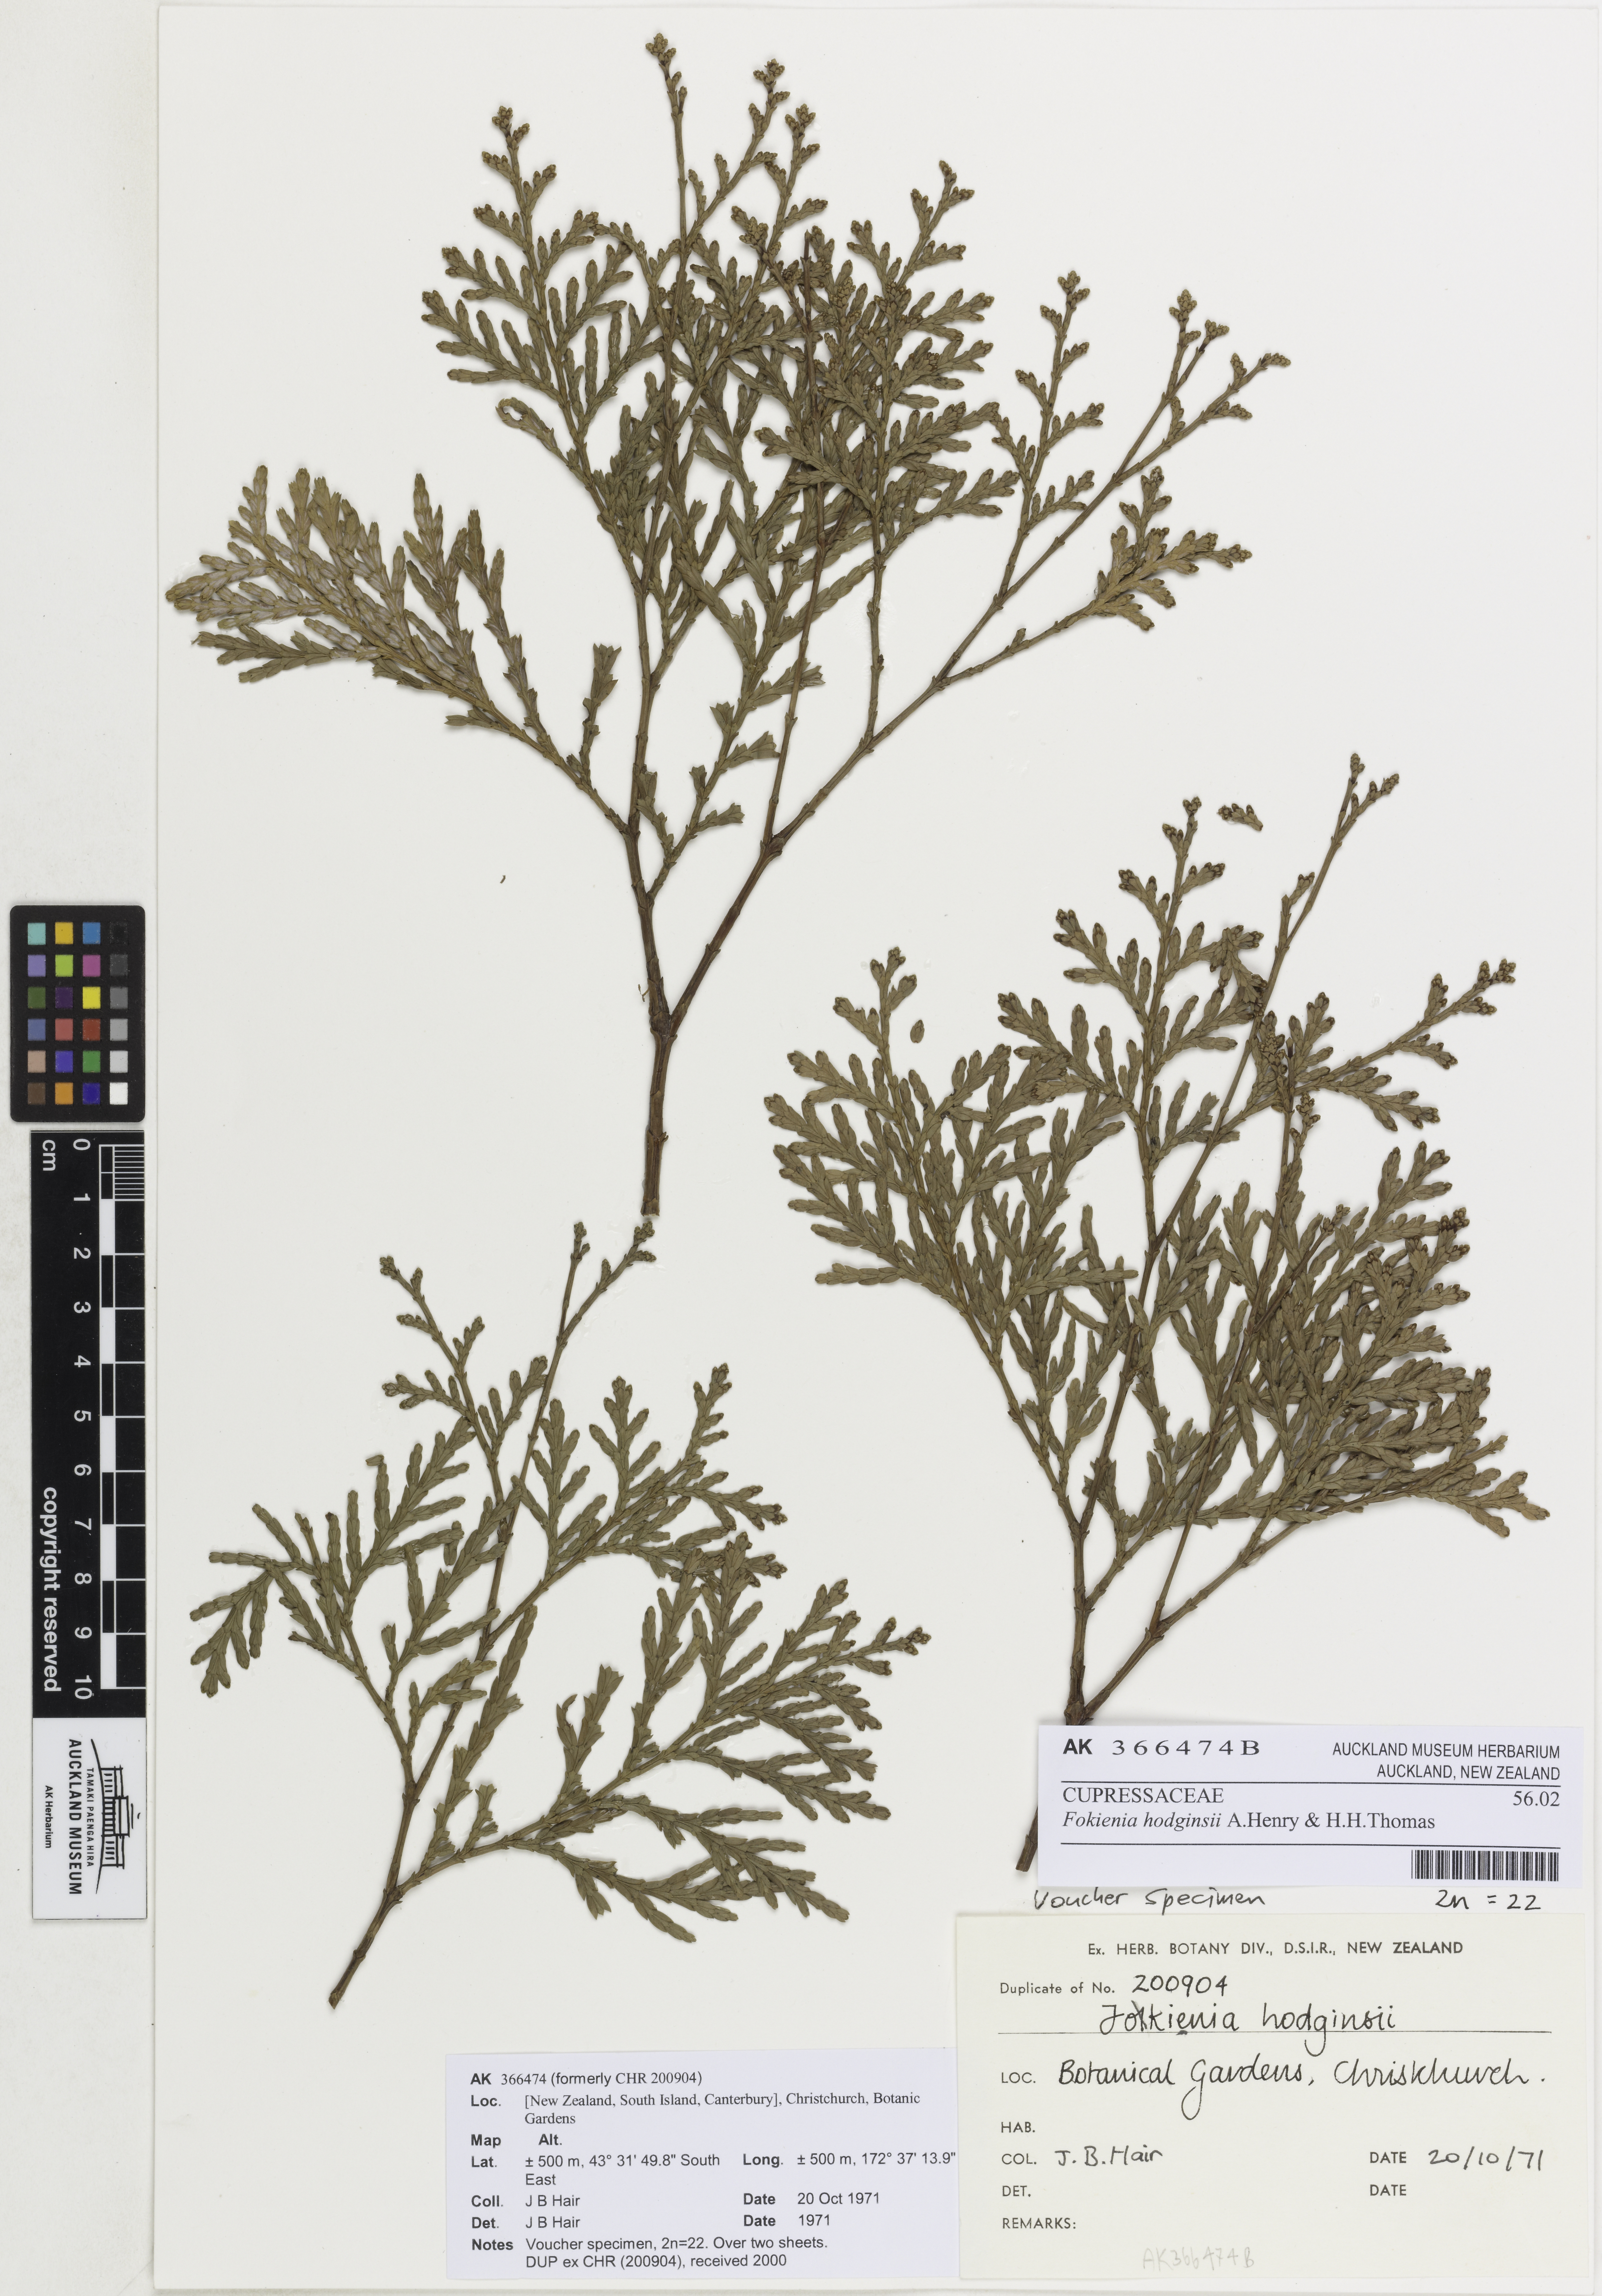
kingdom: Plantae
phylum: Tracheophyta
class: Pinopsida
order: Pinales
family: Cupressaceae
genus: Fokienia
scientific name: Fokienia hodginsii
